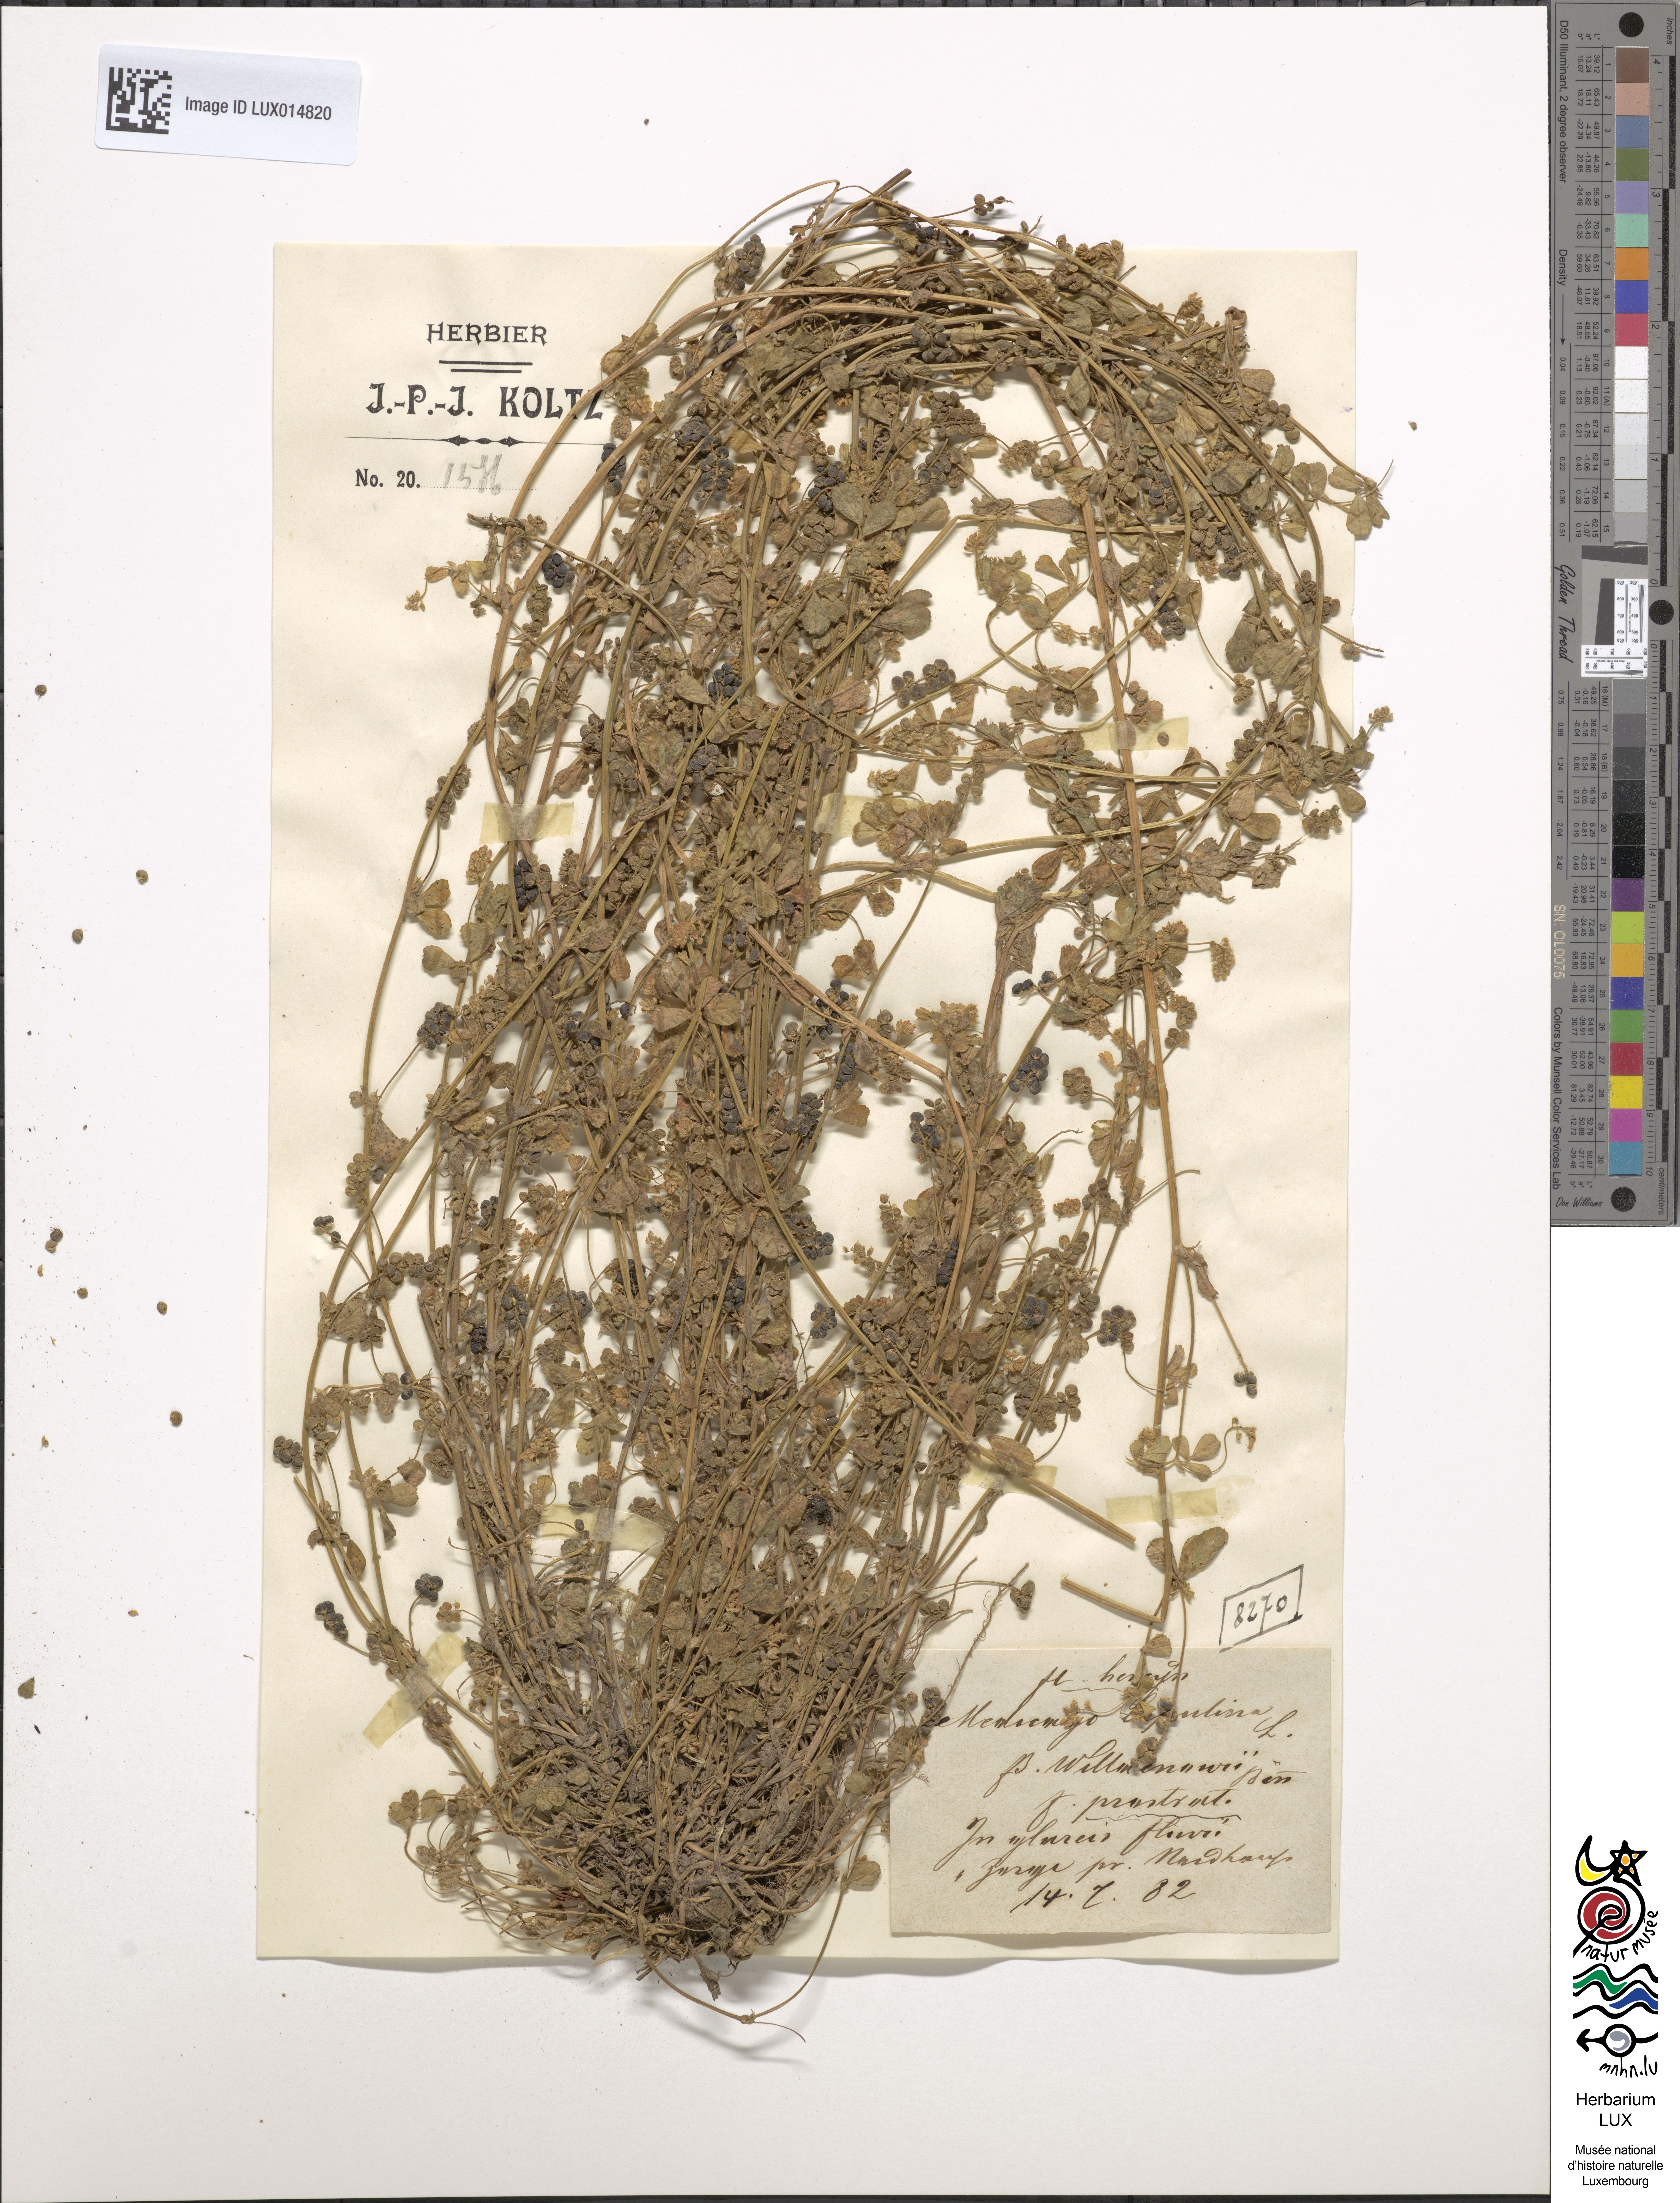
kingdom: Plantae
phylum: Tracheophyta
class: Magnoliopsida
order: Fabales
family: Fabaceae
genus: Medicago
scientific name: Medicago lupulina
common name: Black medick
